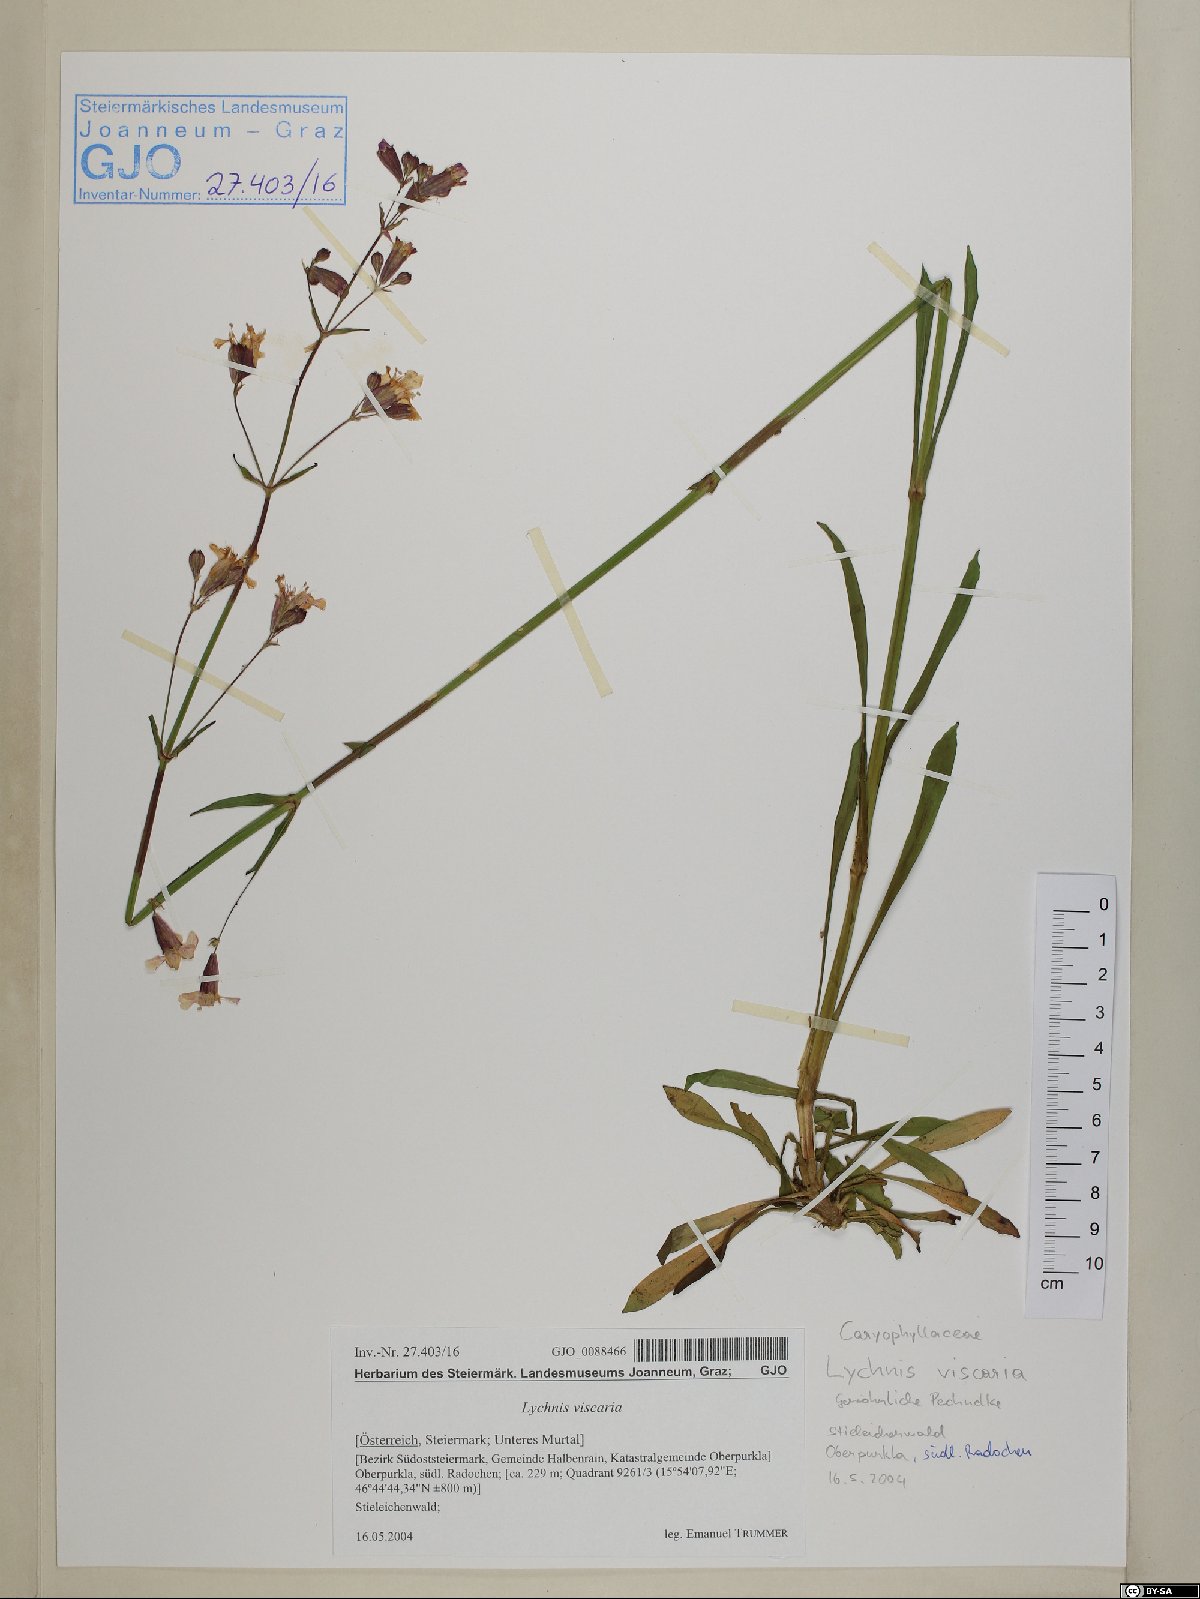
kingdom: Plantae
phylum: Tracheophyta
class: Magnoliopsida
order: Caryophyllales
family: Caryophyllaceae
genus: Viscaria
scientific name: Viscaria vulgaris
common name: Clammy campion
